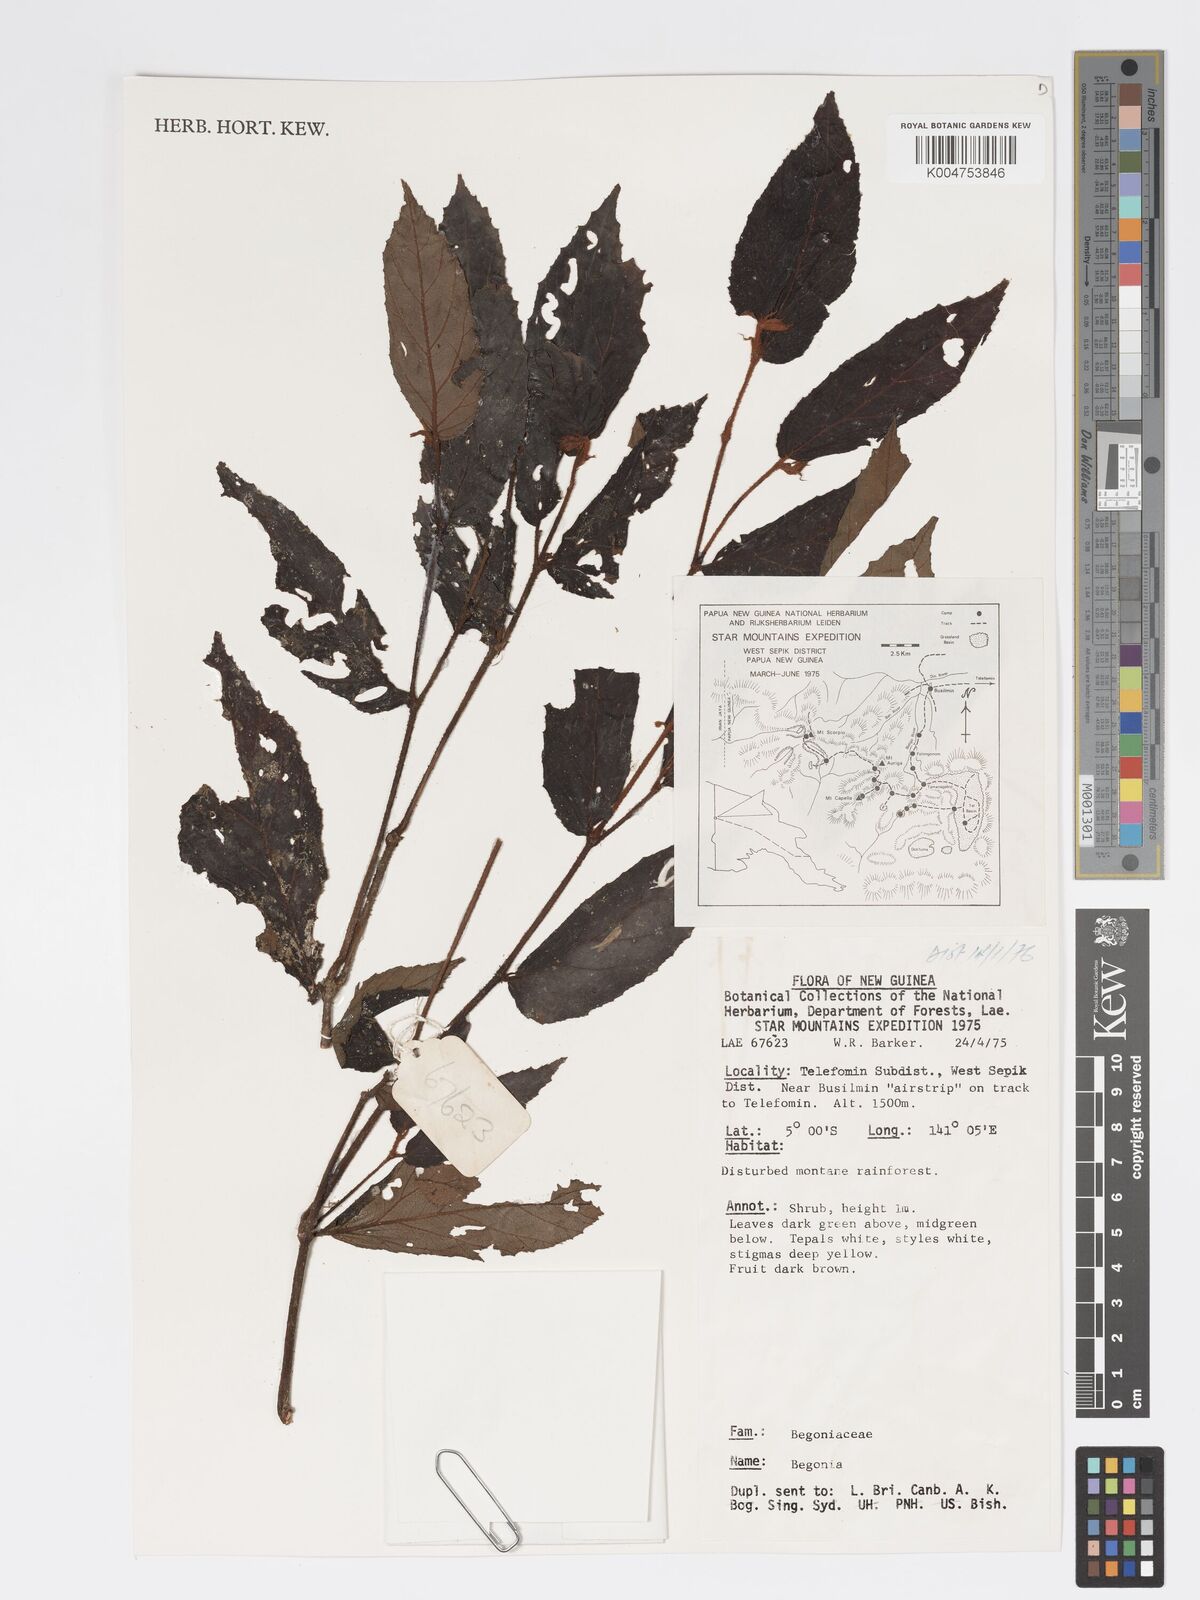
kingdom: Plantae
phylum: Tracheophyta
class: Magnoliopsida
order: Cucurbitales
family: Begoniaceae
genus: Begonia
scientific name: Begonia
